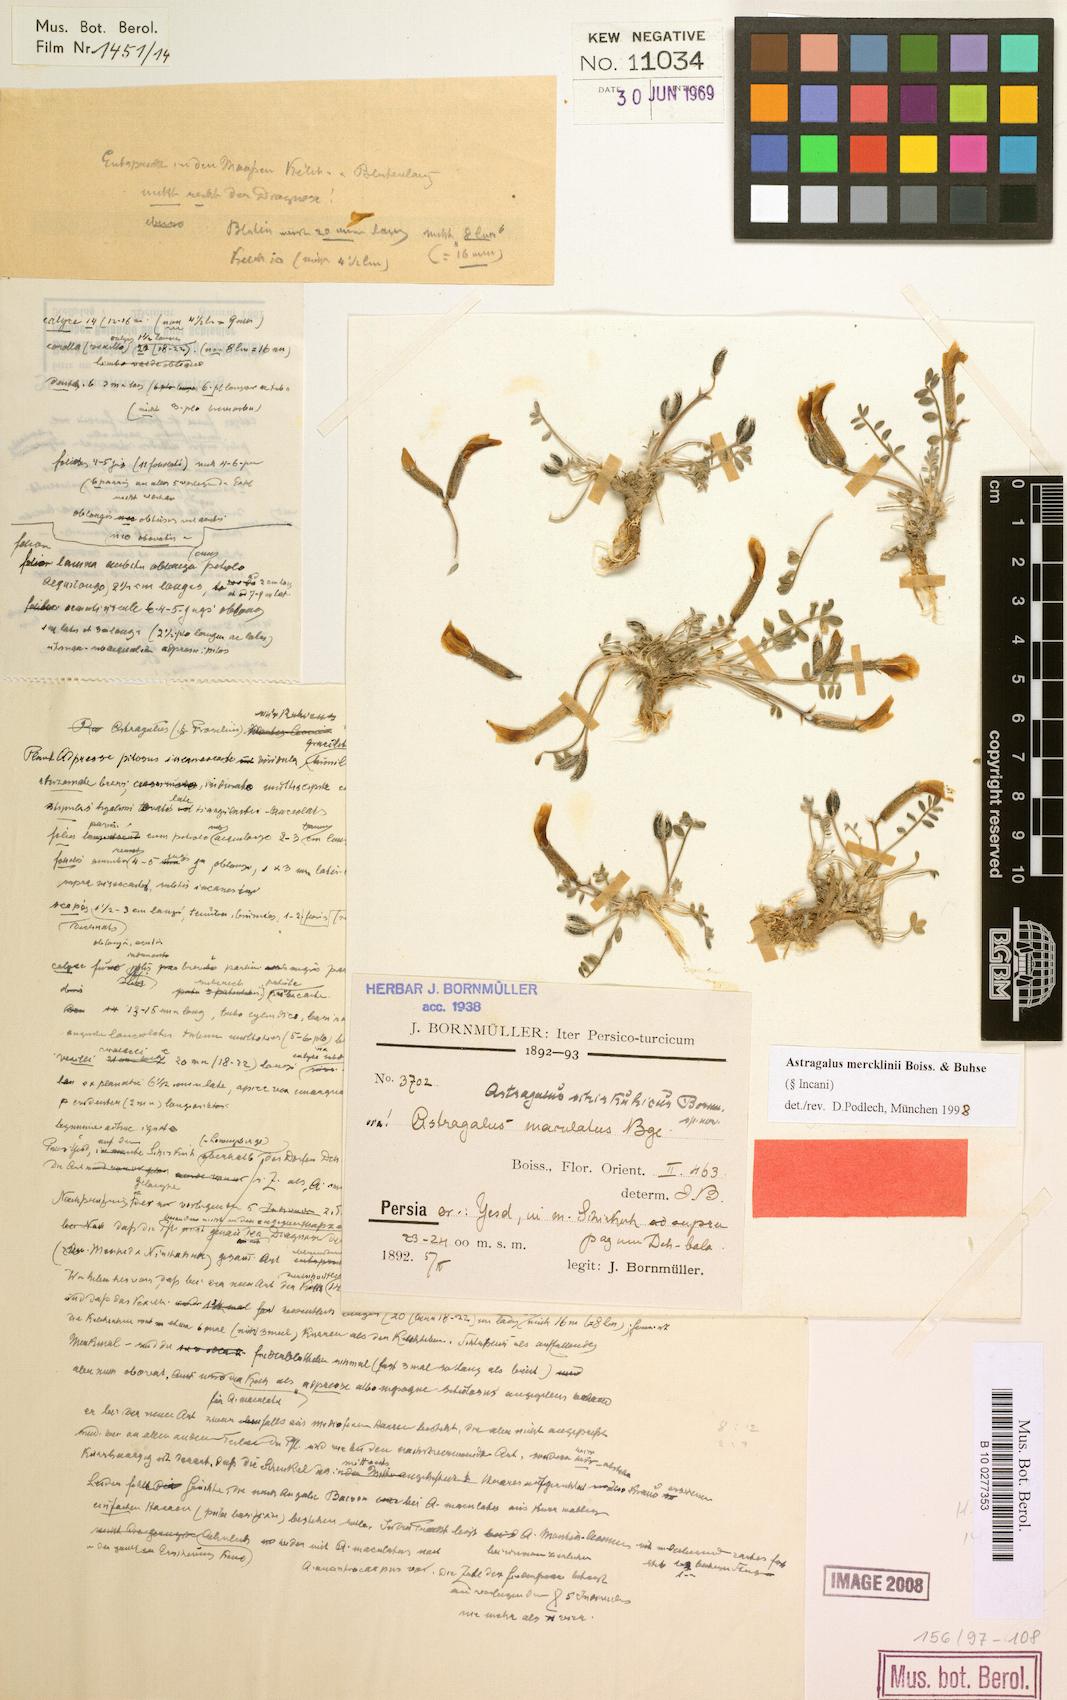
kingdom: Plantae
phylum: Tracheophyta
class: Magnoliopsida
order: Fabales
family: Fabaceae
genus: Astragalus
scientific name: Astragalus mercklinii
